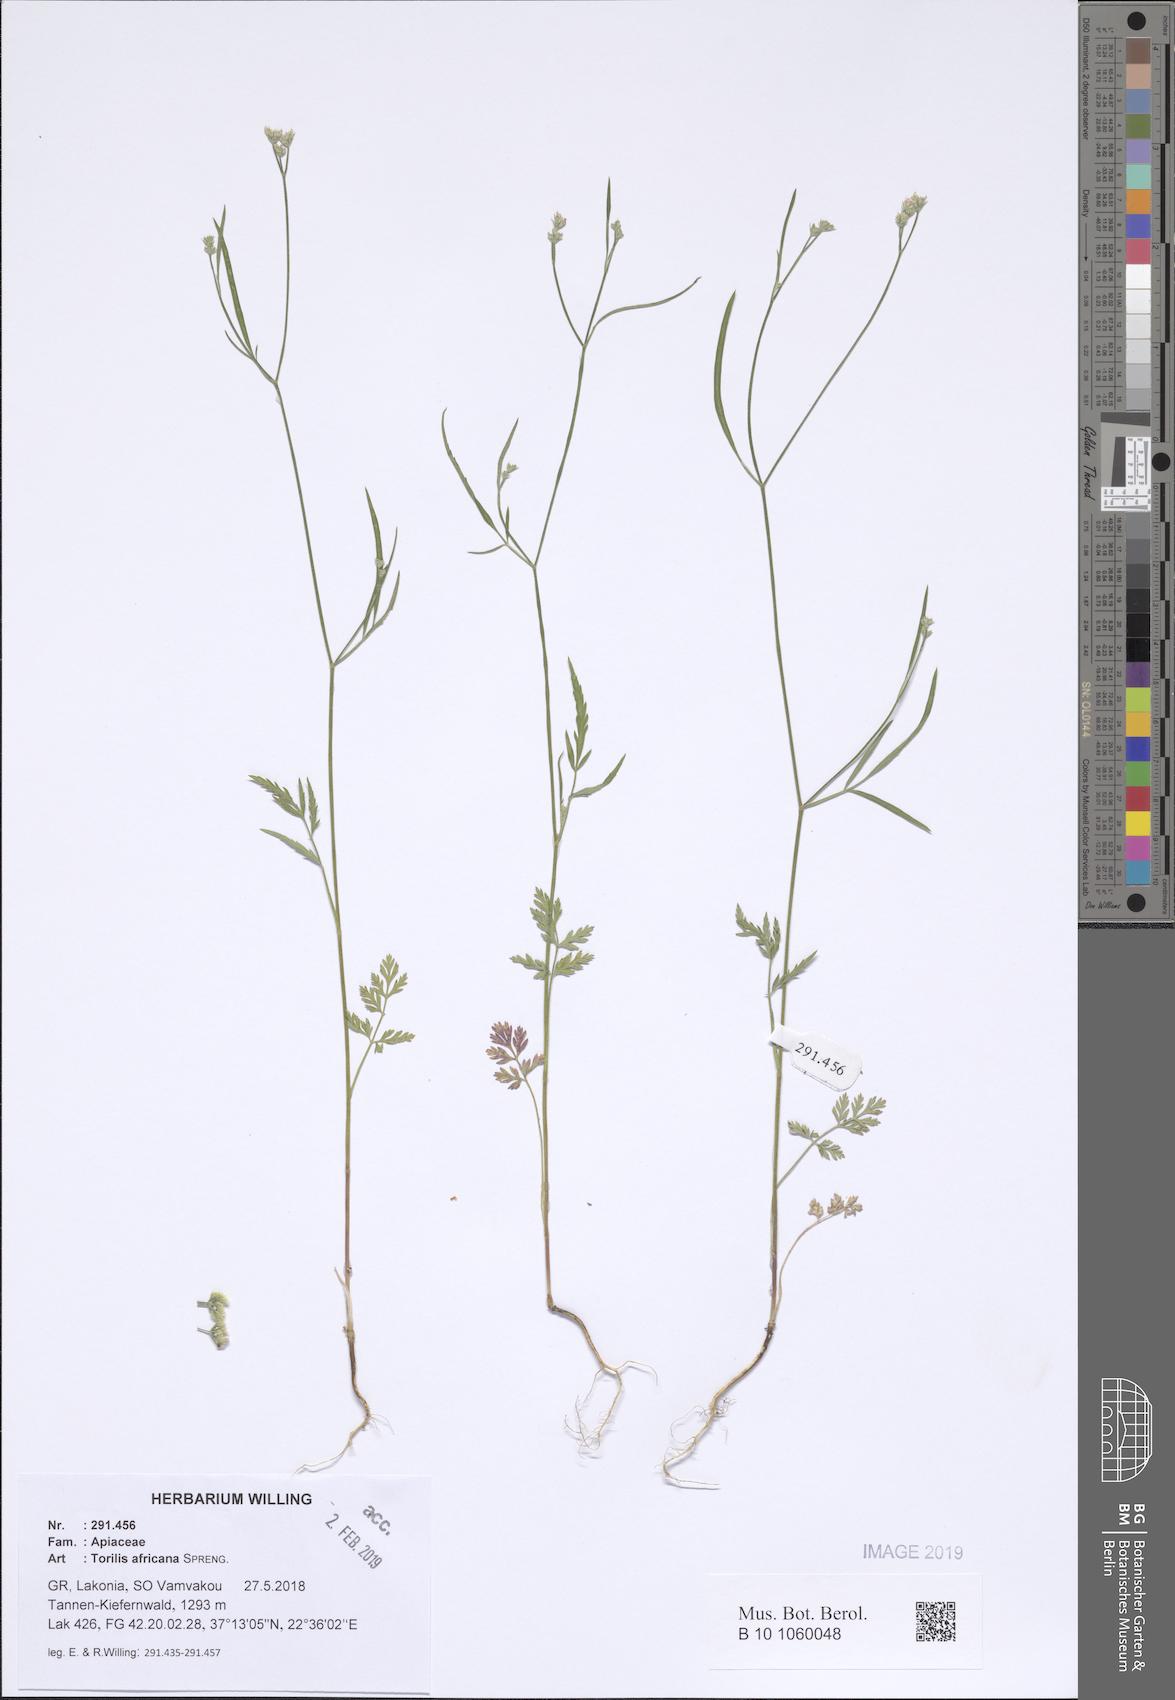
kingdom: Plantae
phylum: Tracheophyta
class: Magnoliopsida
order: Apiales
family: Apiaceae
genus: Torilis
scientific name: Torilis africana
